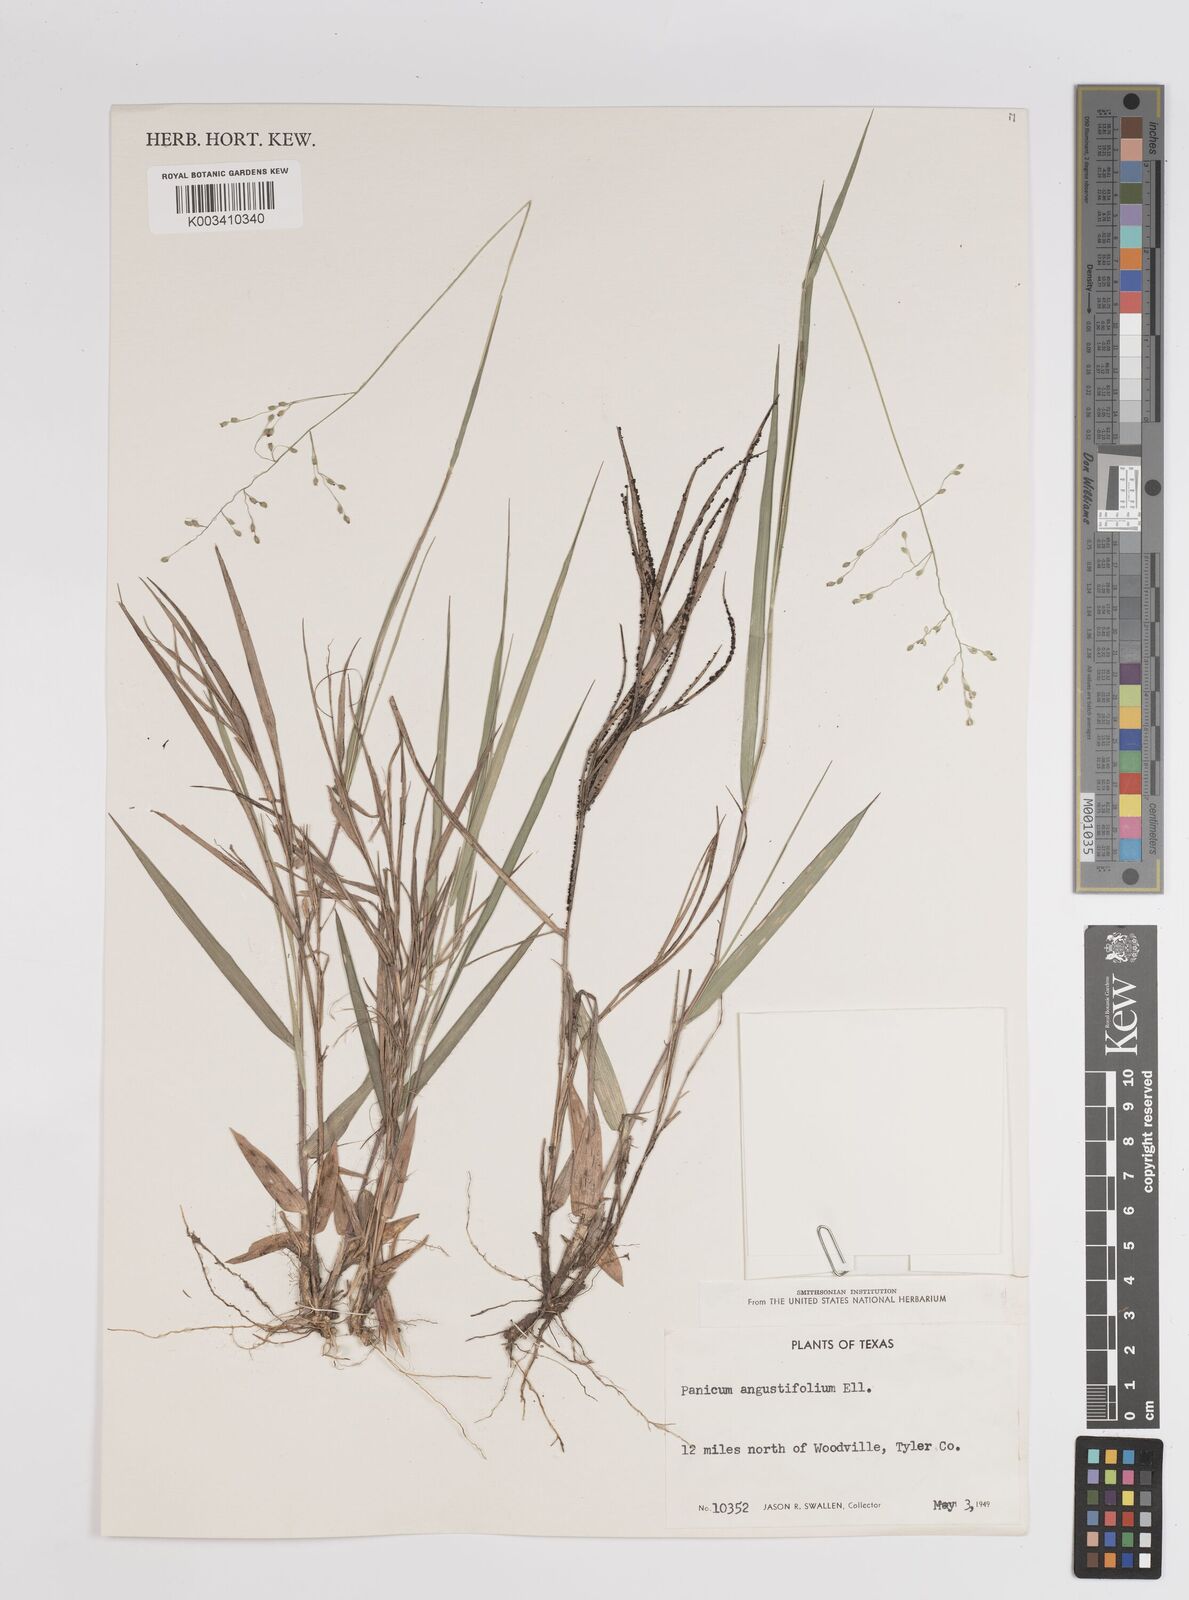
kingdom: Plantae
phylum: Tracheophyta
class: Liliopsida
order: Poales
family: Poaceae
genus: Dichanthelium
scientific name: Dichanthelium angustifolium
